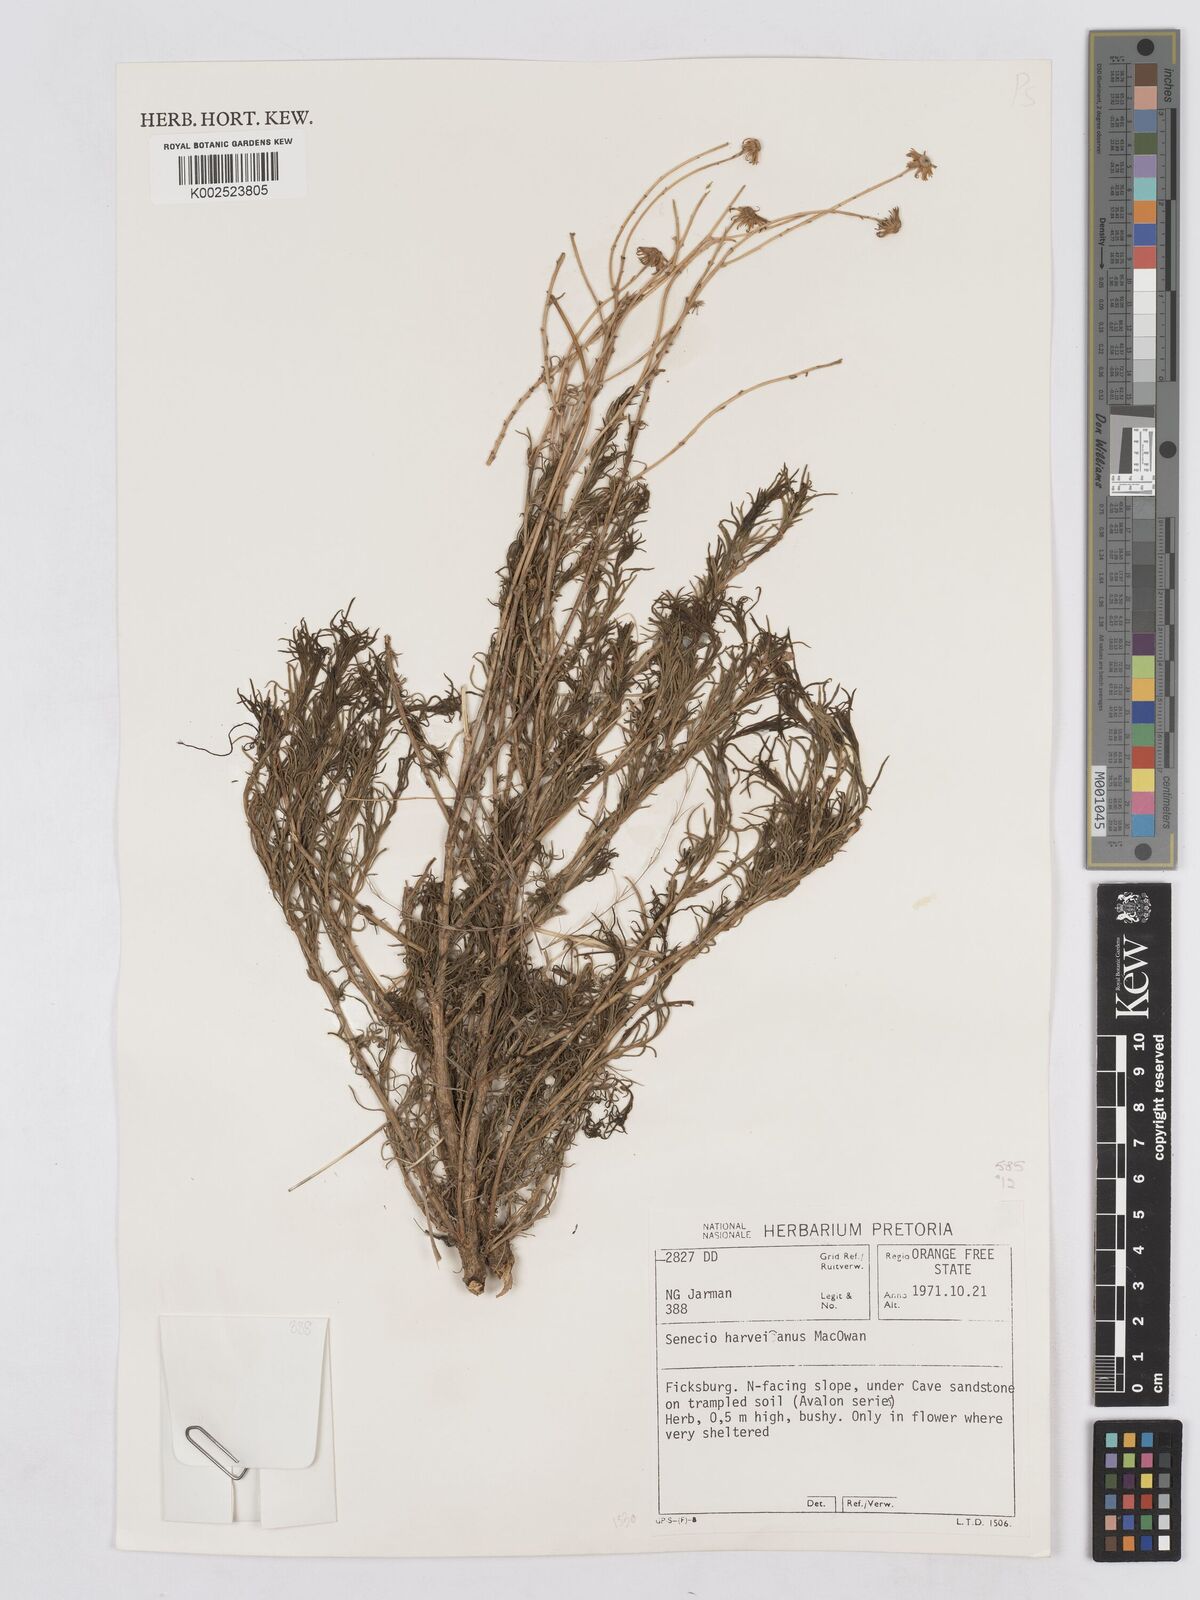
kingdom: Plantae
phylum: Tracheophyta
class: Magnoliopsida
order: Asterales
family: Asteraceae
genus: Senecio
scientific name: Senecio harveyanus
